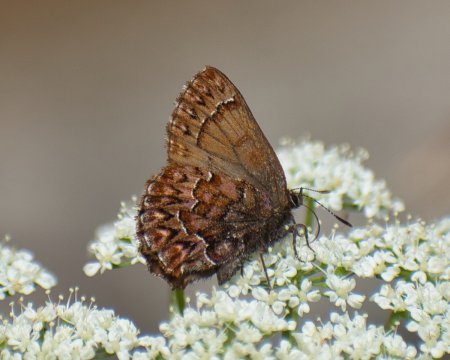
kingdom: Animalia
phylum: Arthropoda
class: Insecta
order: Lepidoptera
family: Lycaenidae
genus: Incisalia
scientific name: Incisalia eryphon
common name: Western Pine Elfin
